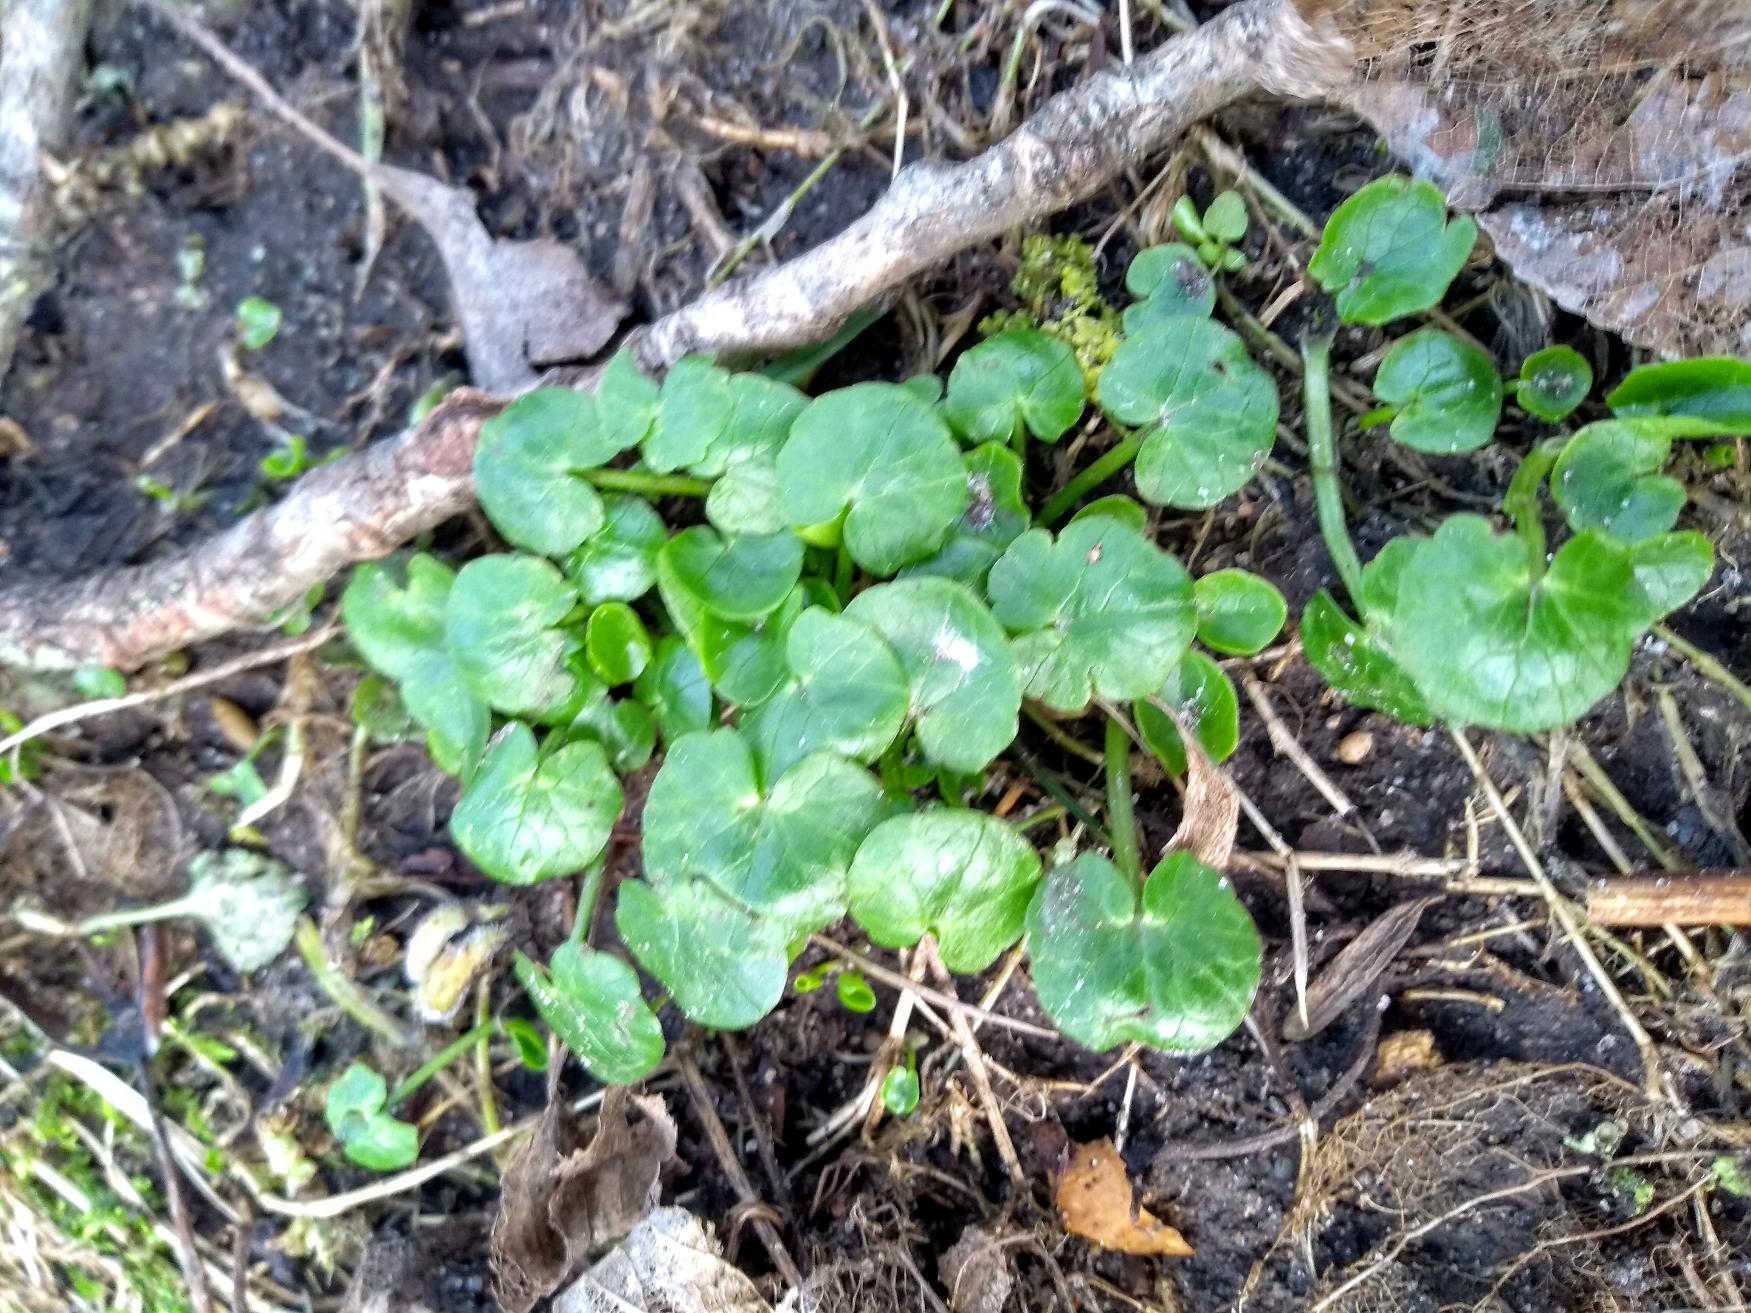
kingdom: Plantae
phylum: Tracheophyta
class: Magnoliopsida
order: Ranunculales
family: Ranunculaceae
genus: Ficaria
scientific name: Ficaria verna
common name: Vorterod
